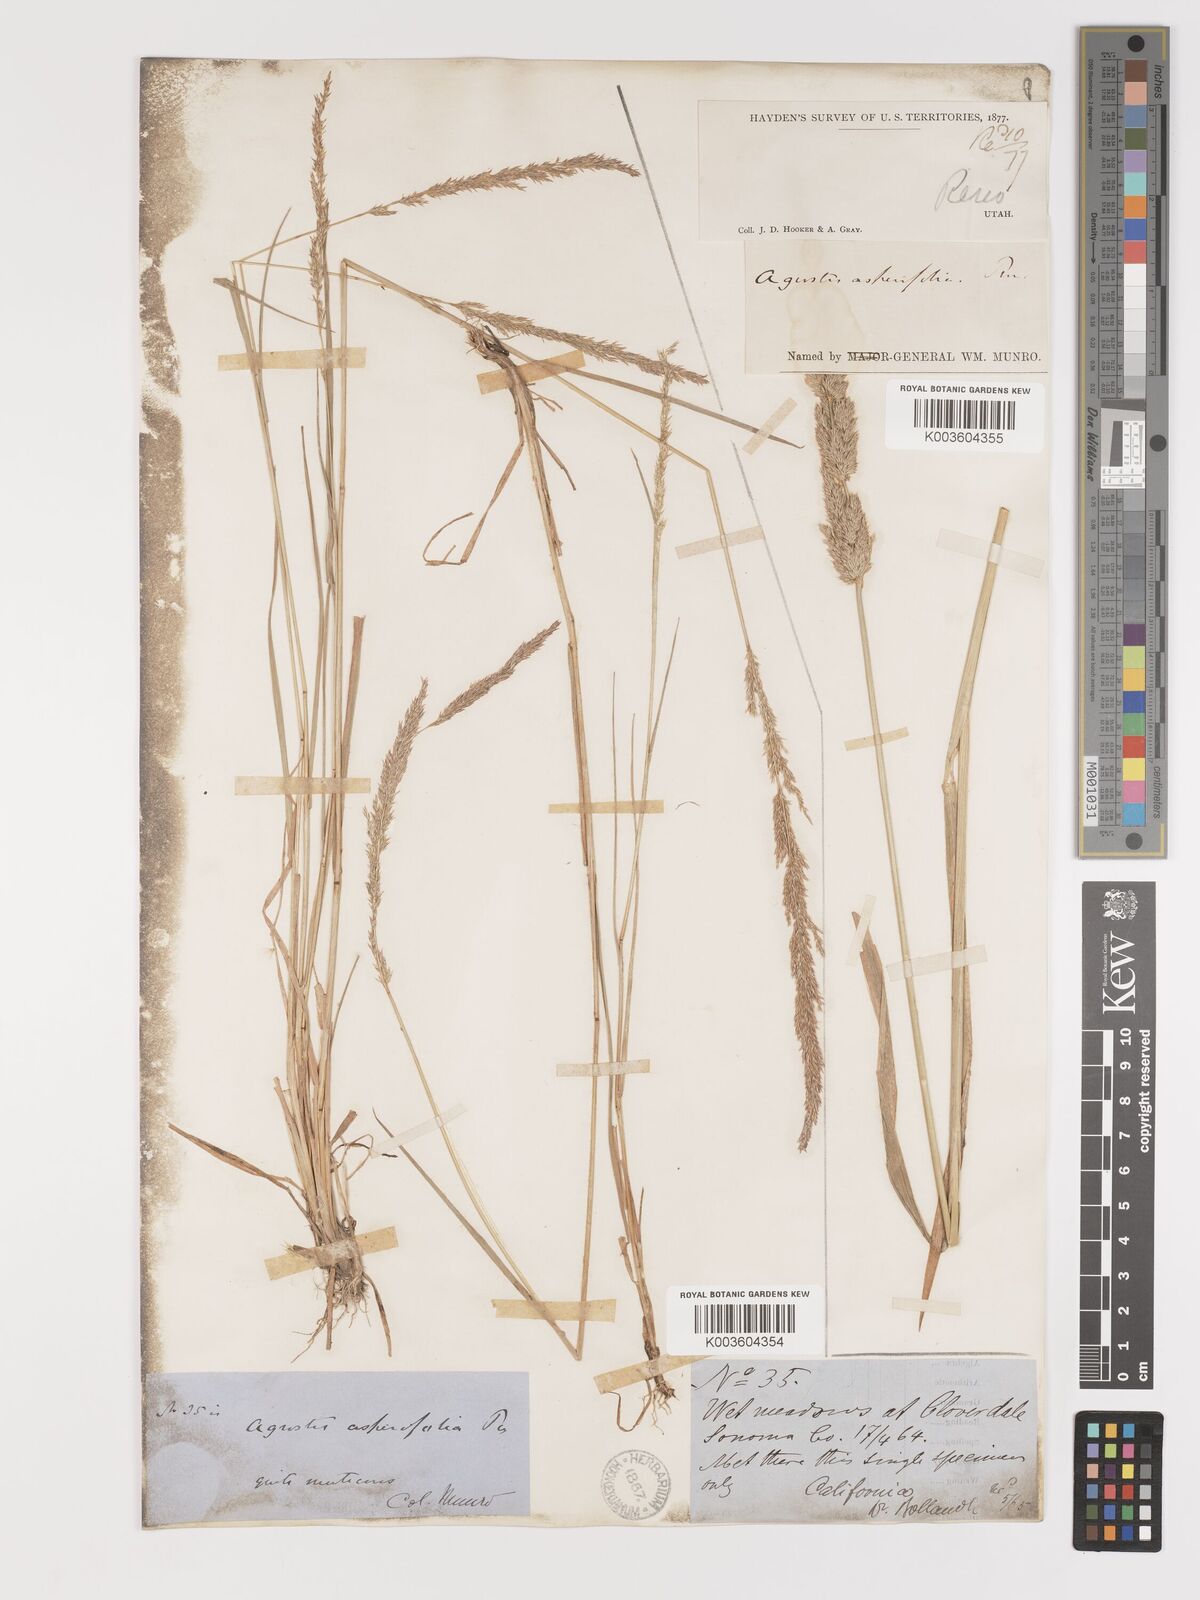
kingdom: Plantae
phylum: Tracheophyta
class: Liliopsida
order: Poales
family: Poaceae
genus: Agrostis
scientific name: Agrostis exarata
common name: Spike bent
